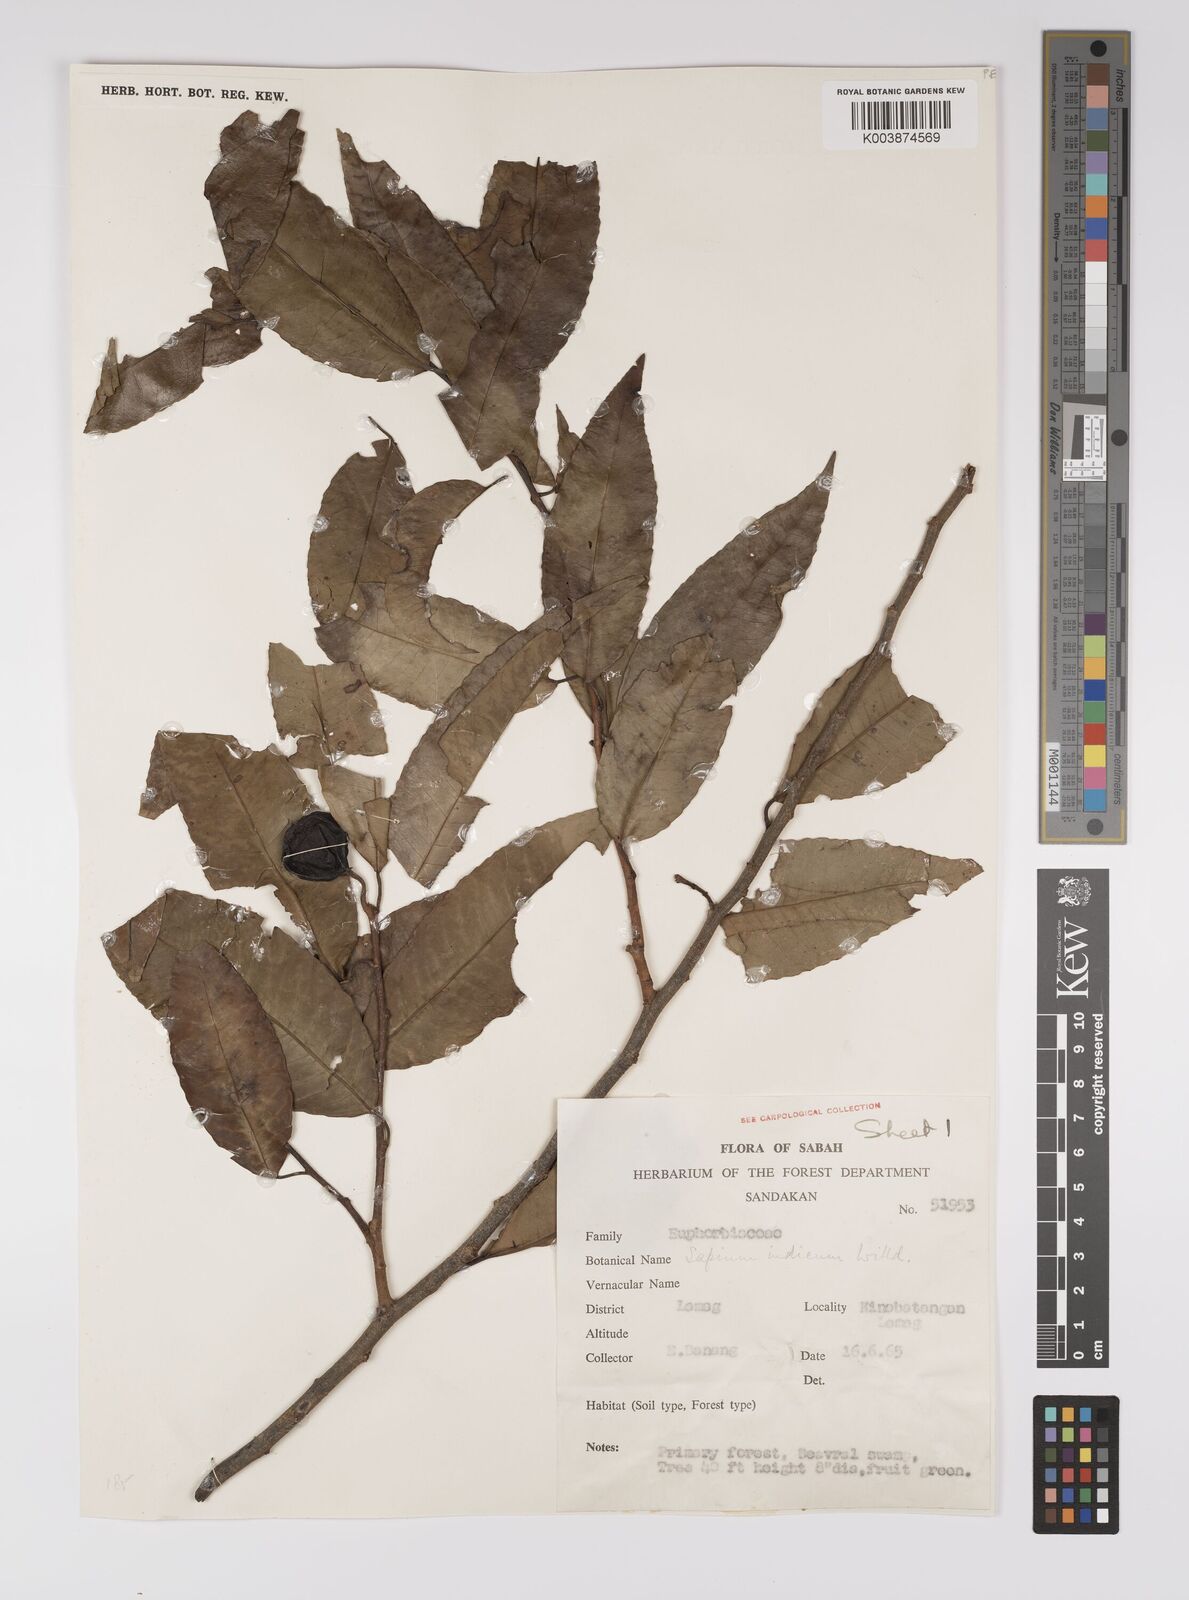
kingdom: Plantae
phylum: Tracheophyta
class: Magnoliopsida
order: Malpighiales
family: Euphorbiaceae
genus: Shirakiopsis
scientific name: Shirakiopsis indica
